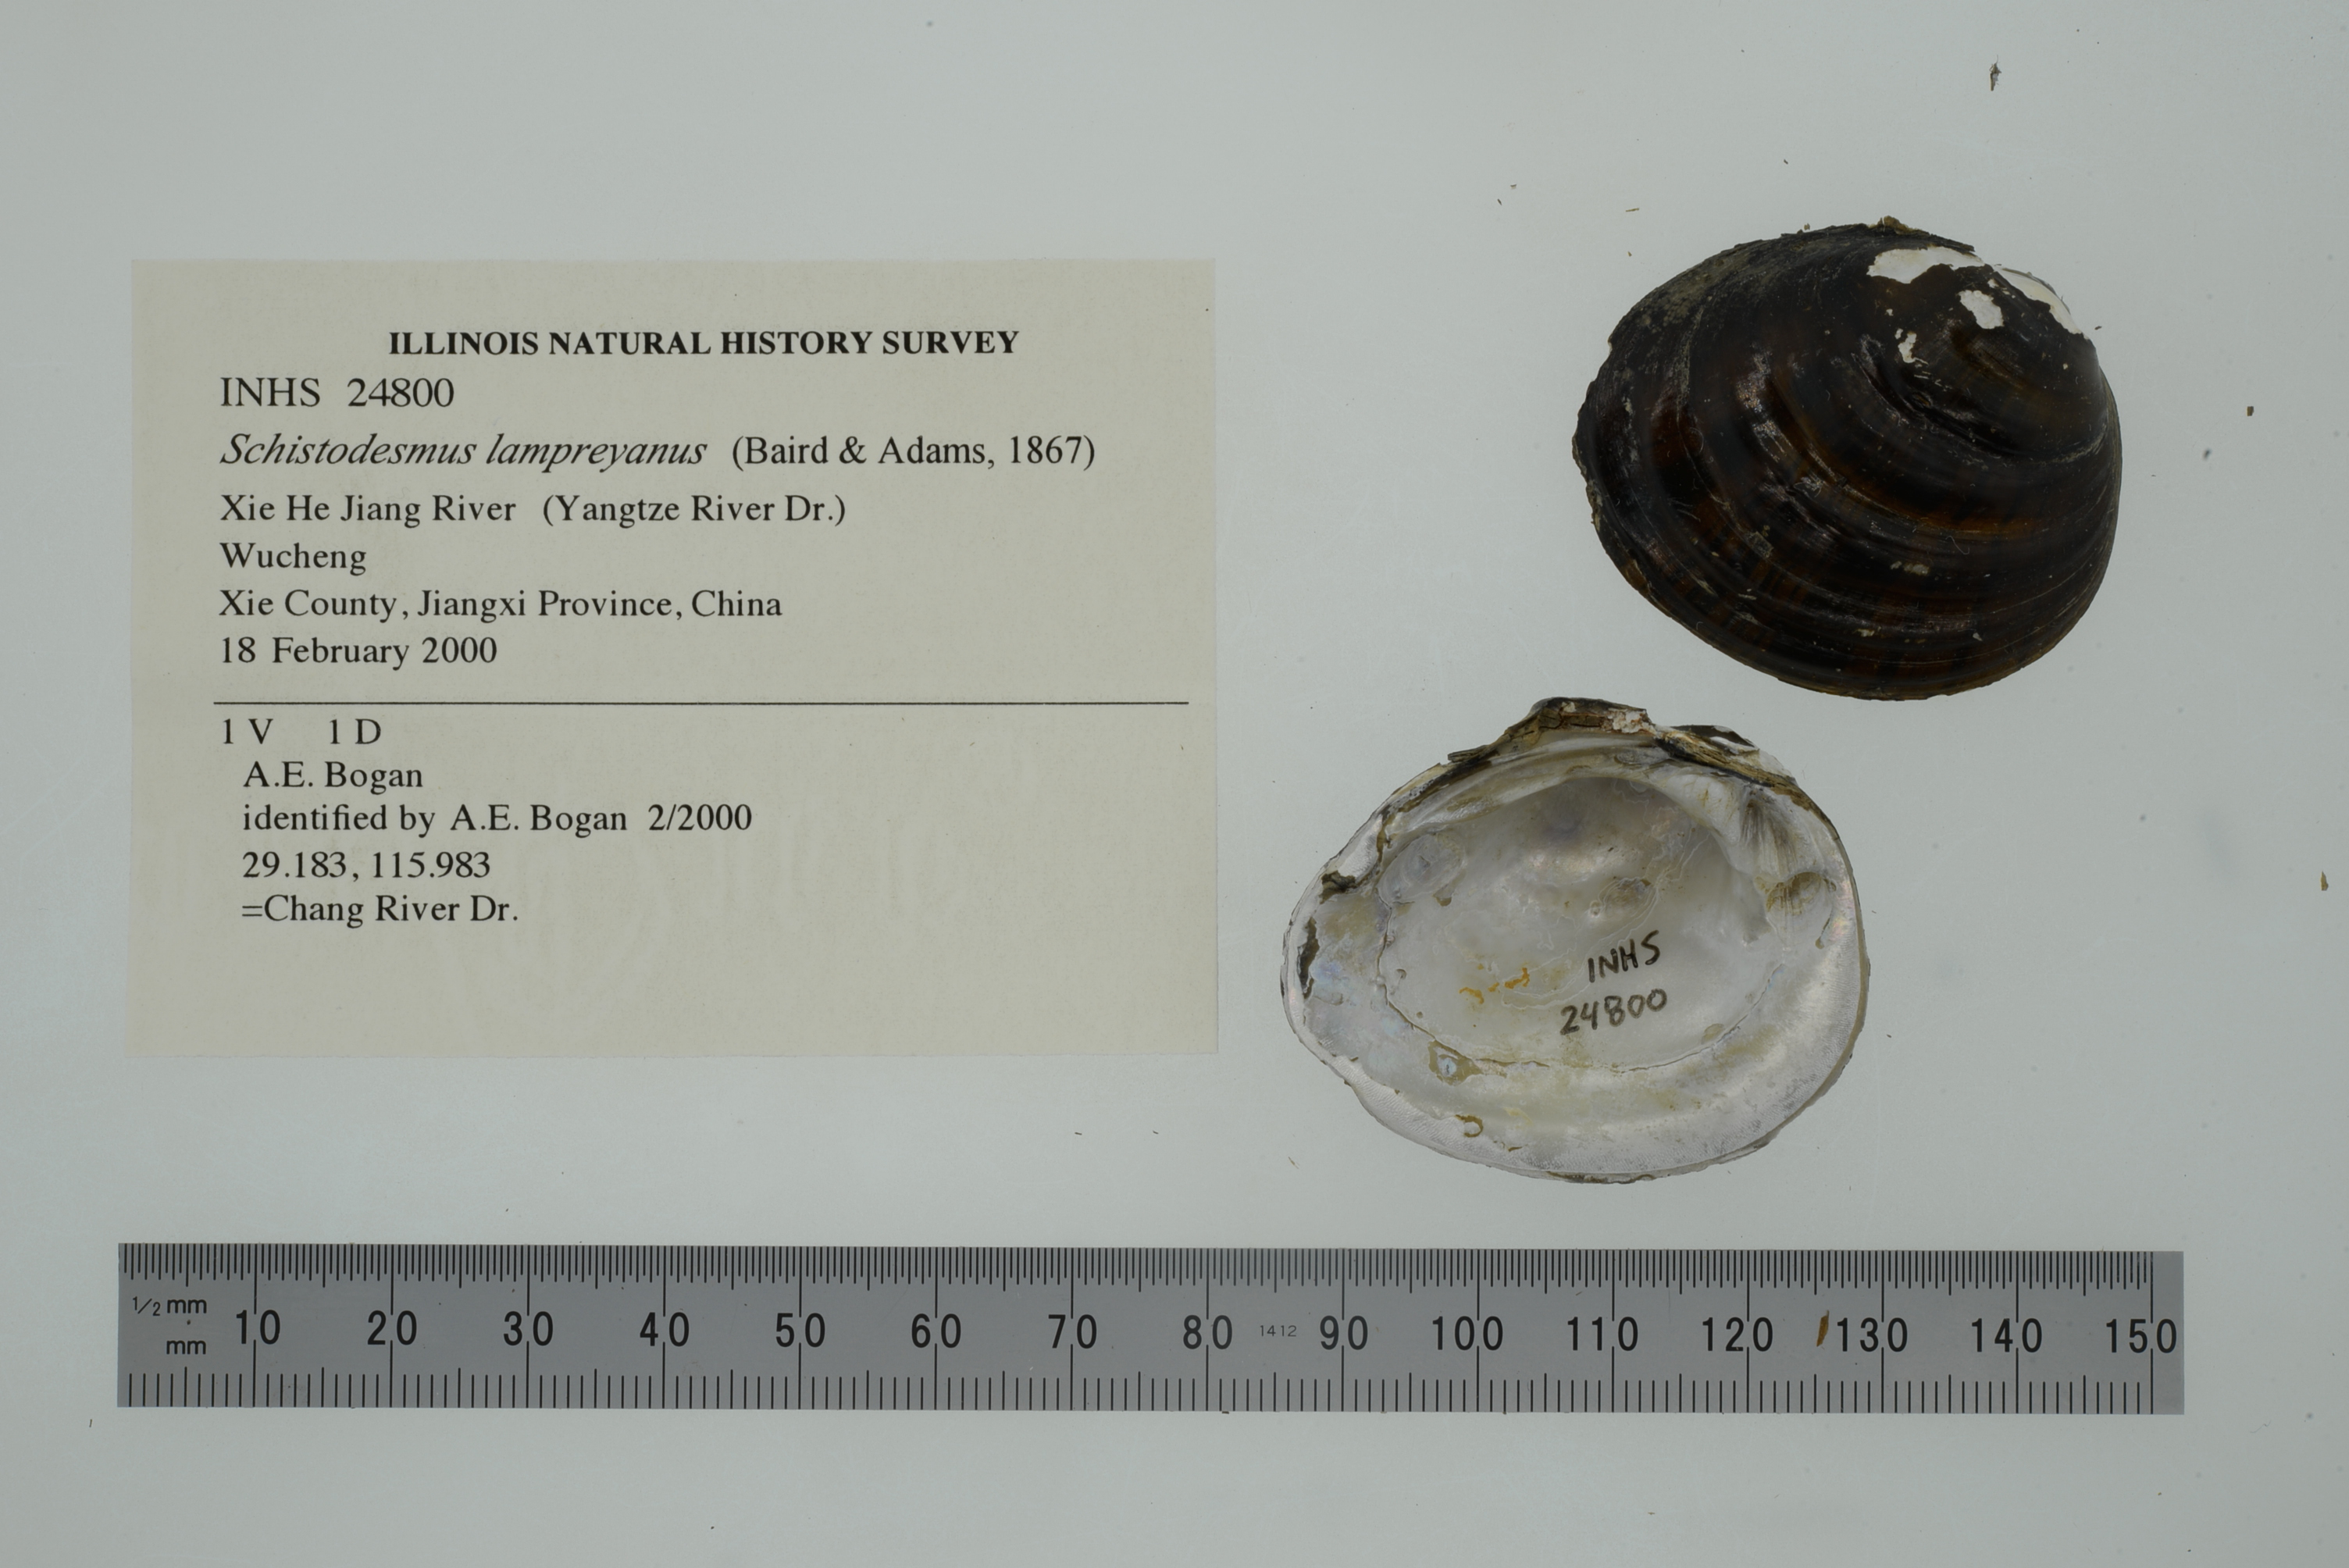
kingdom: Animalia
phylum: Mollusca
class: Bivalvia
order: Unionida
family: Unionidae
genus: Schistodesmus
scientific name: Schistodesmus lampreyanus
